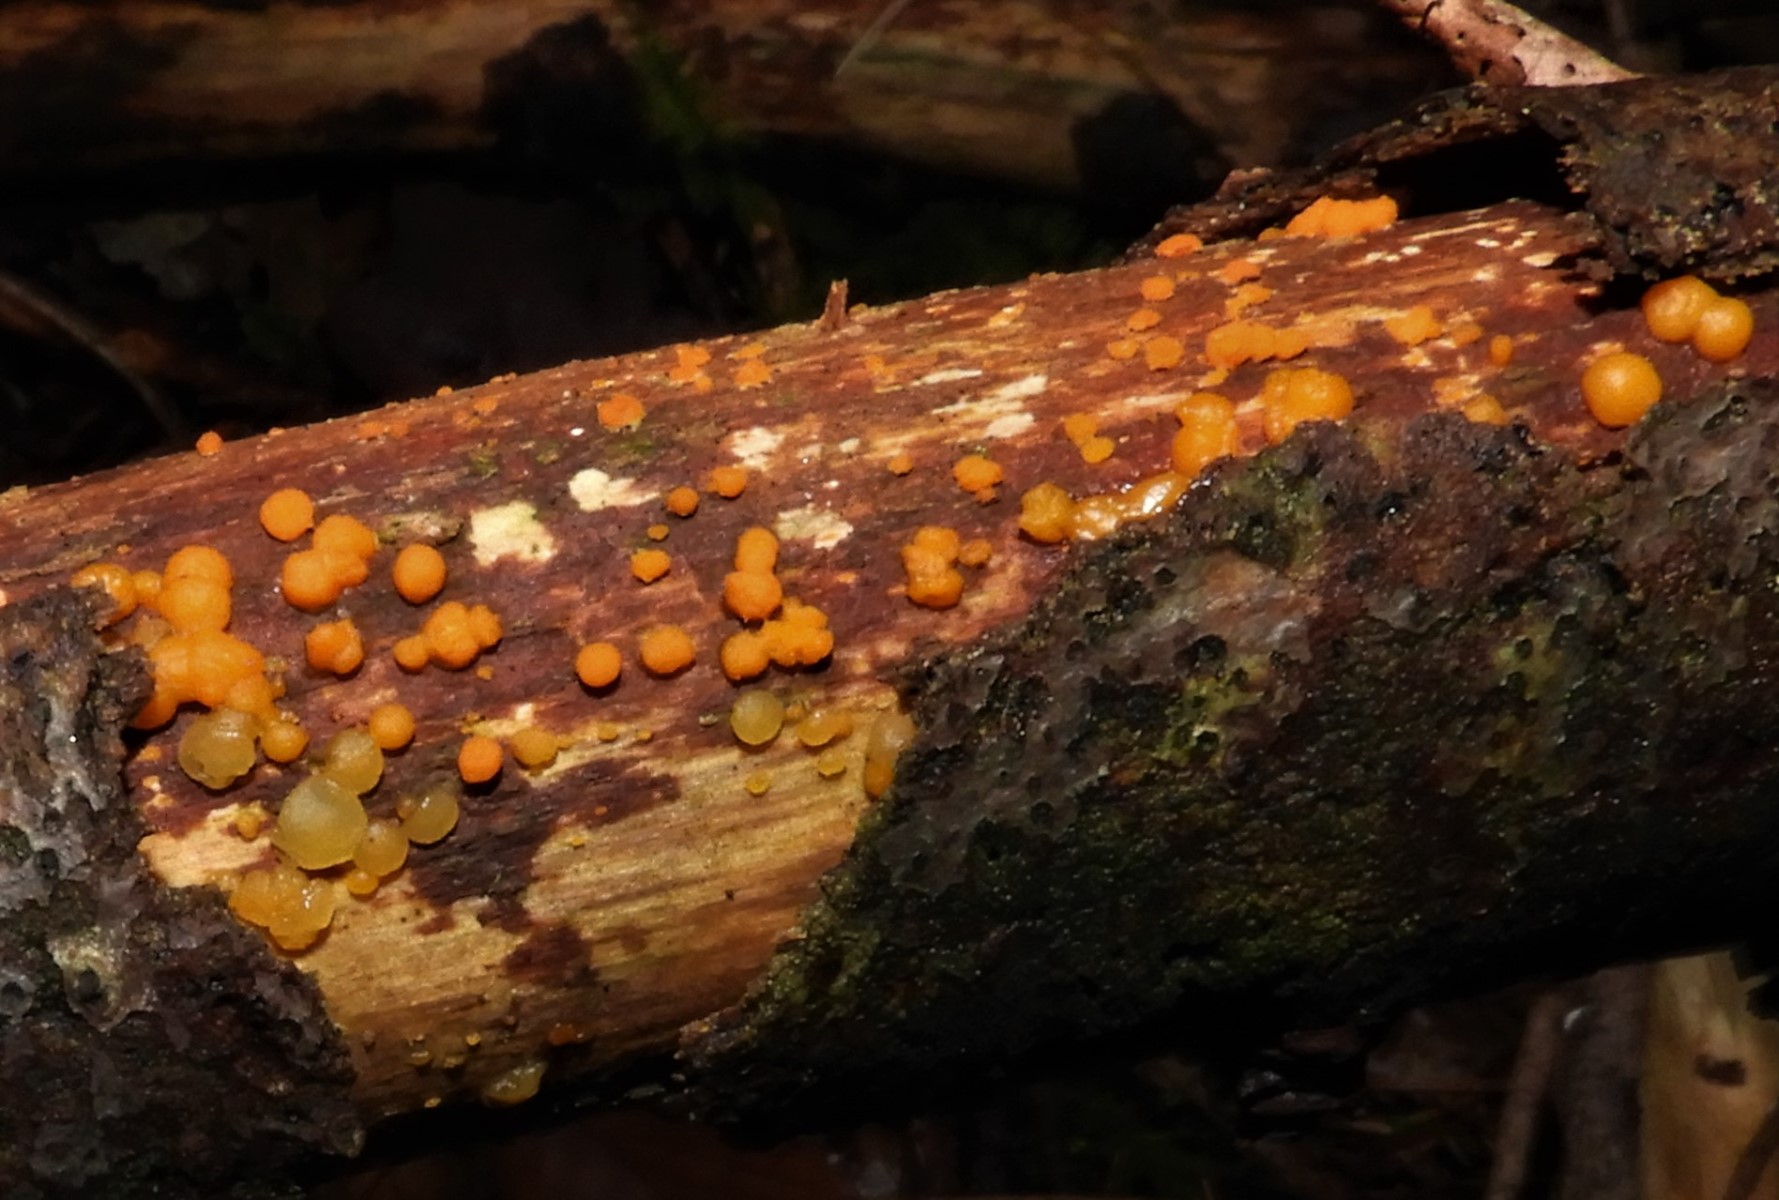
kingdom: Fungi
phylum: Basidiomycota
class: Dacrymycetes
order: Dacrymycetales
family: Dacrymycetaceae
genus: Dacrymyces
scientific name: Dacrymyces stillatus
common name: almindelig tåresvamp
